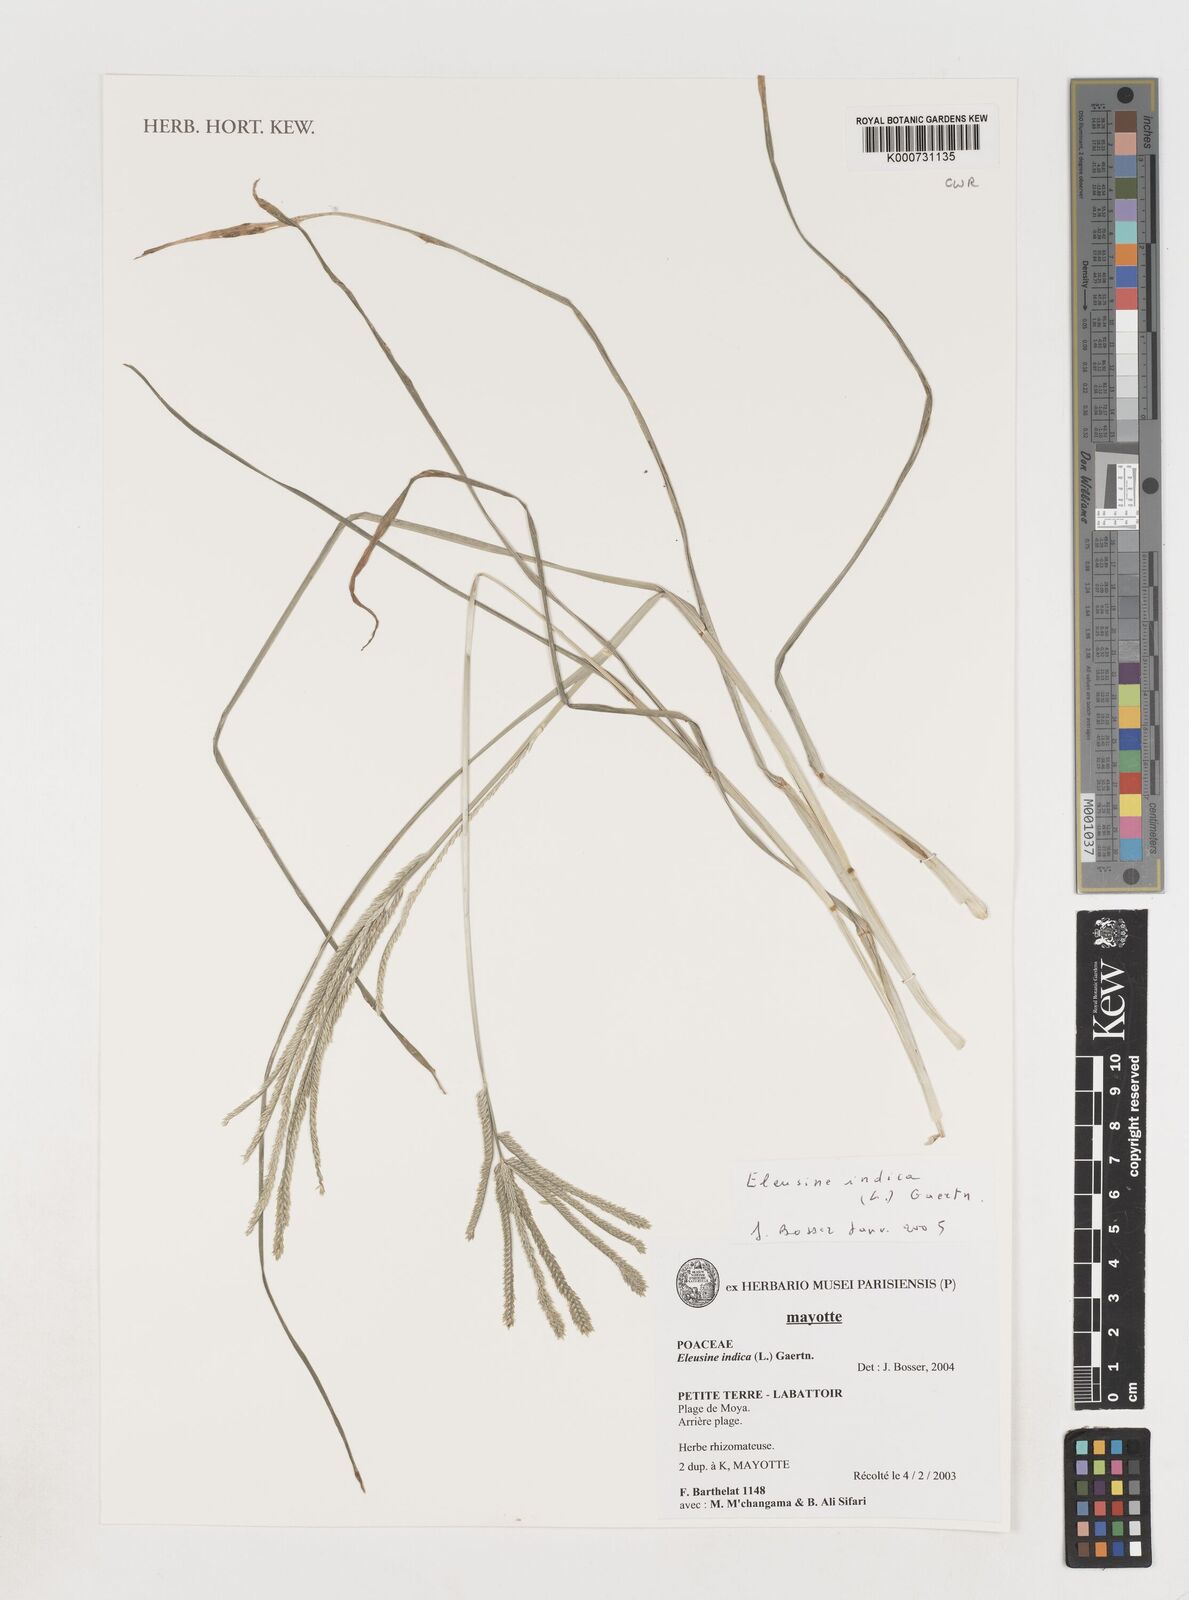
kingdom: Plantae
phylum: Tracheophyta
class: Liliopsida
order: Poales
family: Poaceae
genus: Eleusine
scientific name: Eleusine indica
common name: Yard-grass
